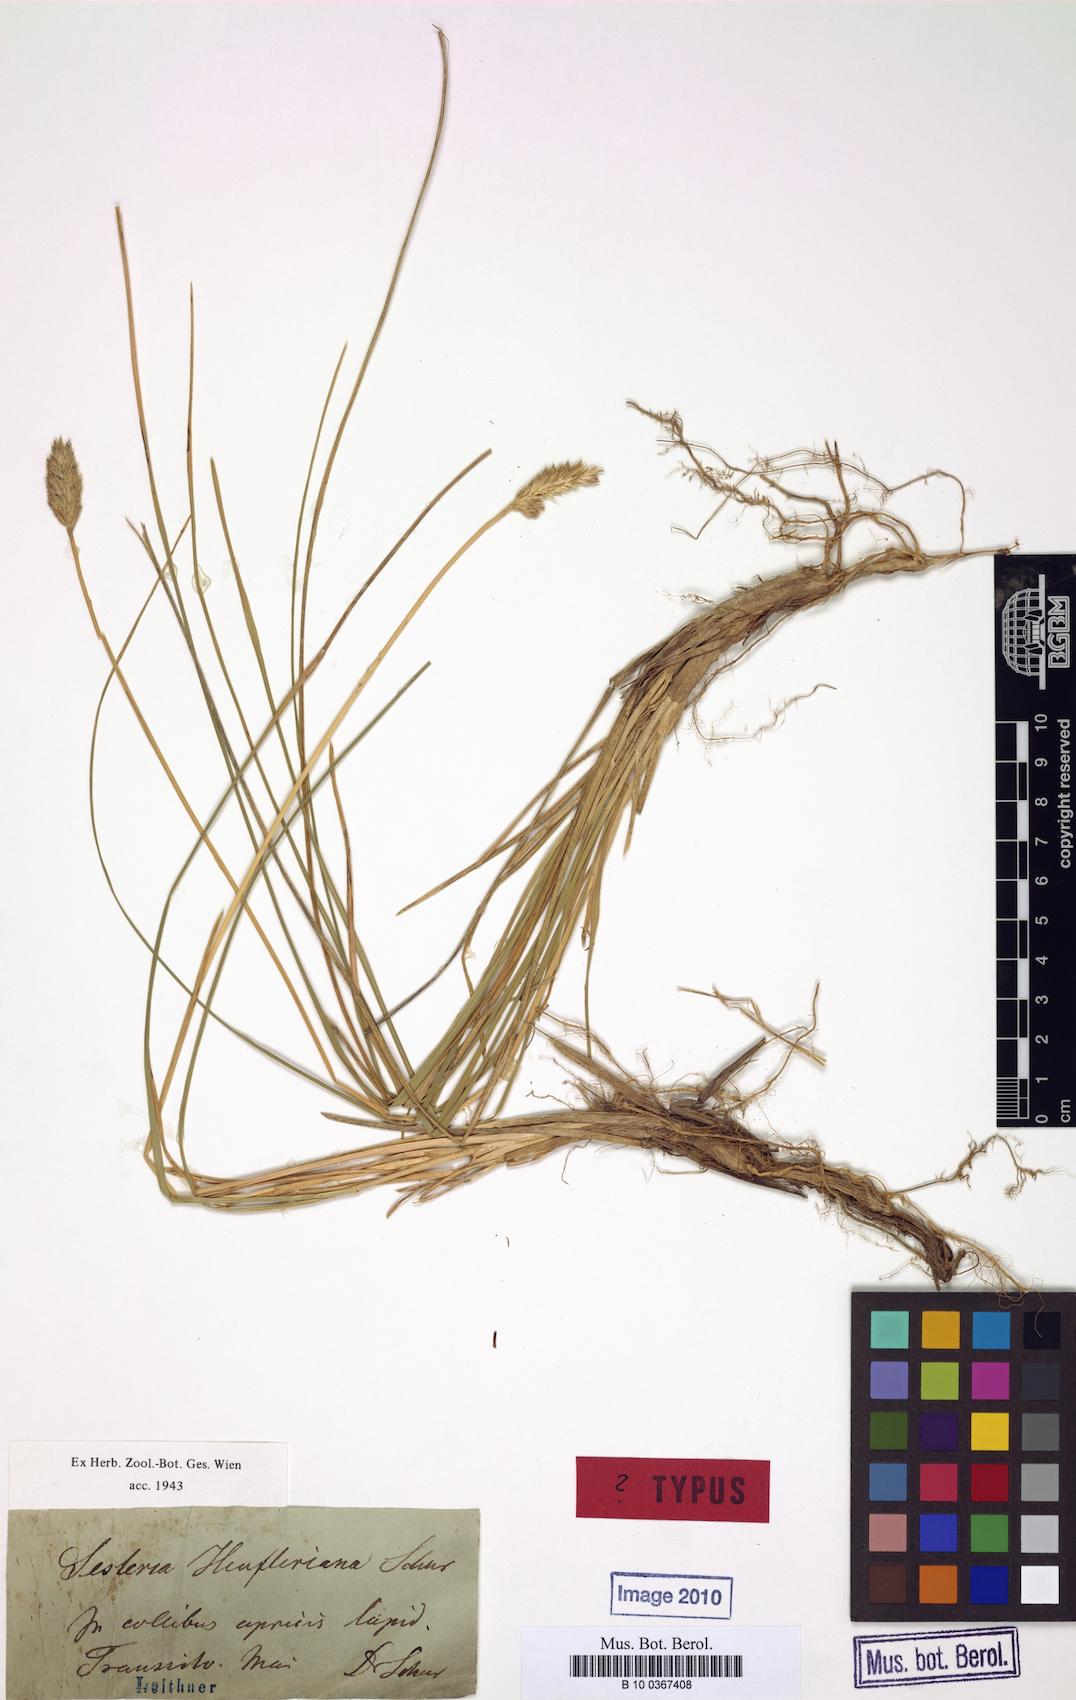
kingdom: Plantae
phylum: Tracheophyta
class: Liliopsida
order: Poales
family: Poaceae
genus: Sesleria
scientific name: Sesleria heufleriana
